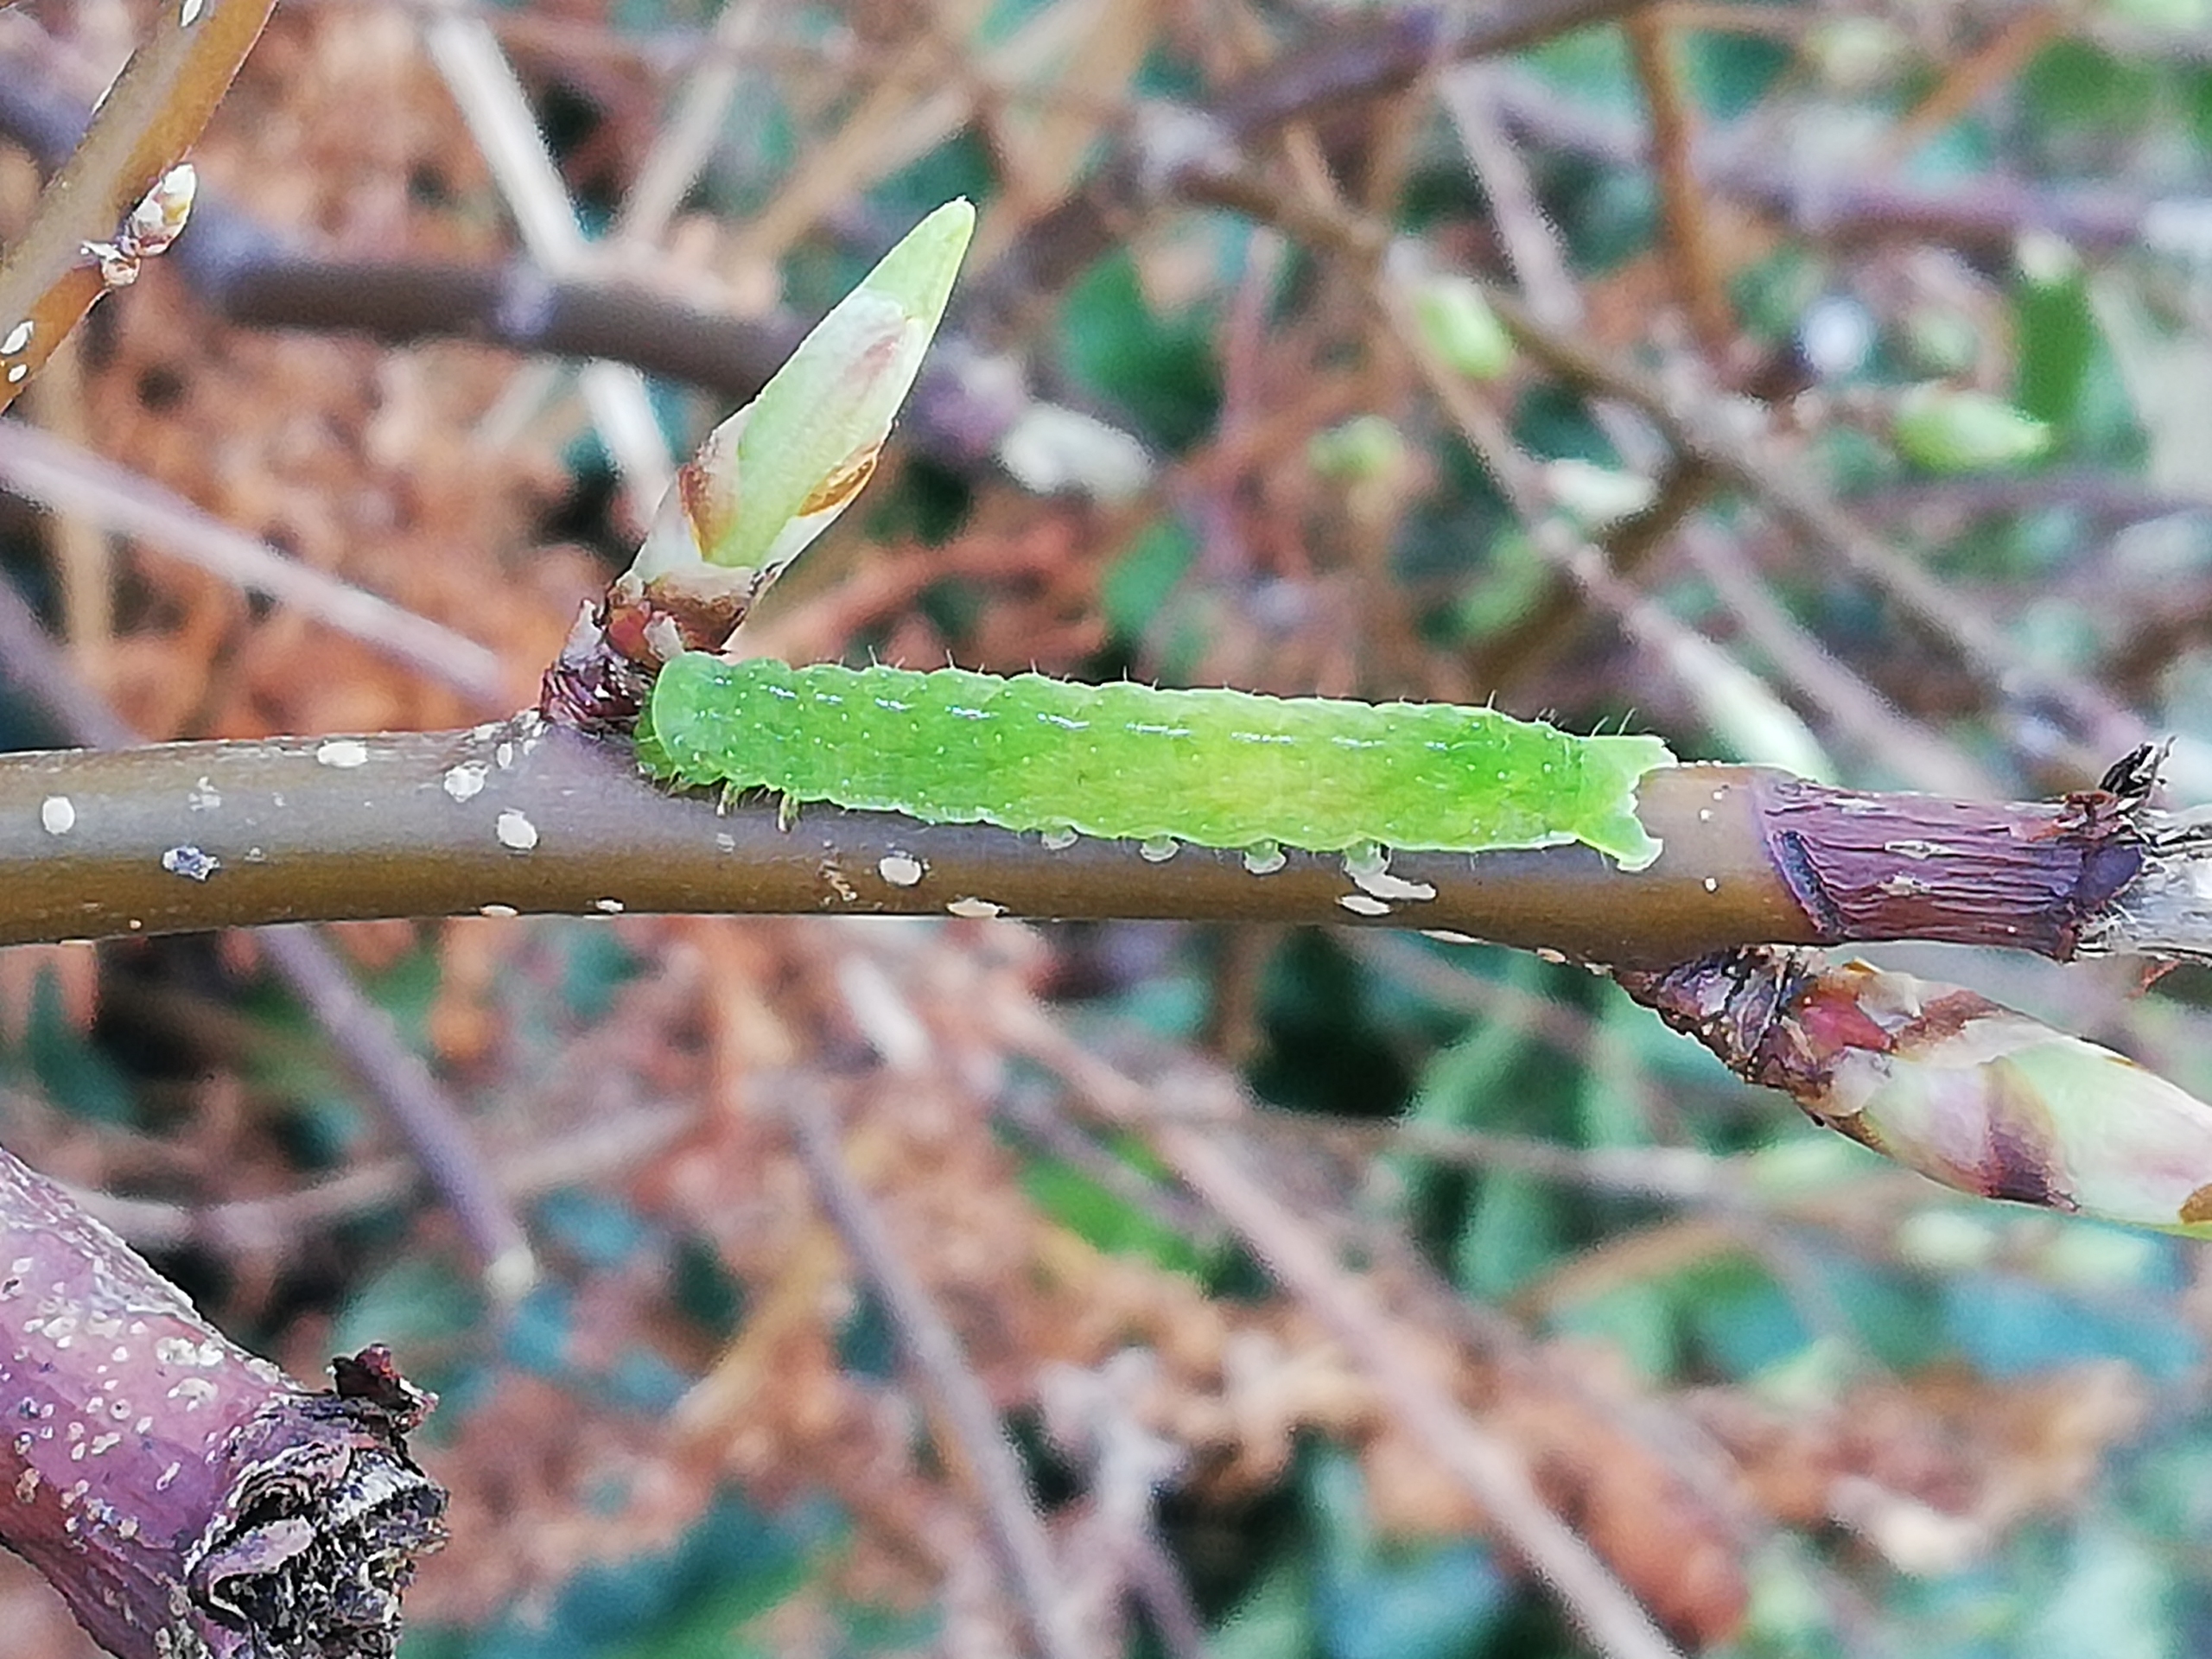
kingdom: Animalia
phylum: Arthropoda
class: Insecta
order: Lepidoptera
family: Noctuidae
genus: Phlogophora
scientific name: Phlogophora meticulosa
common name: Agatugle
